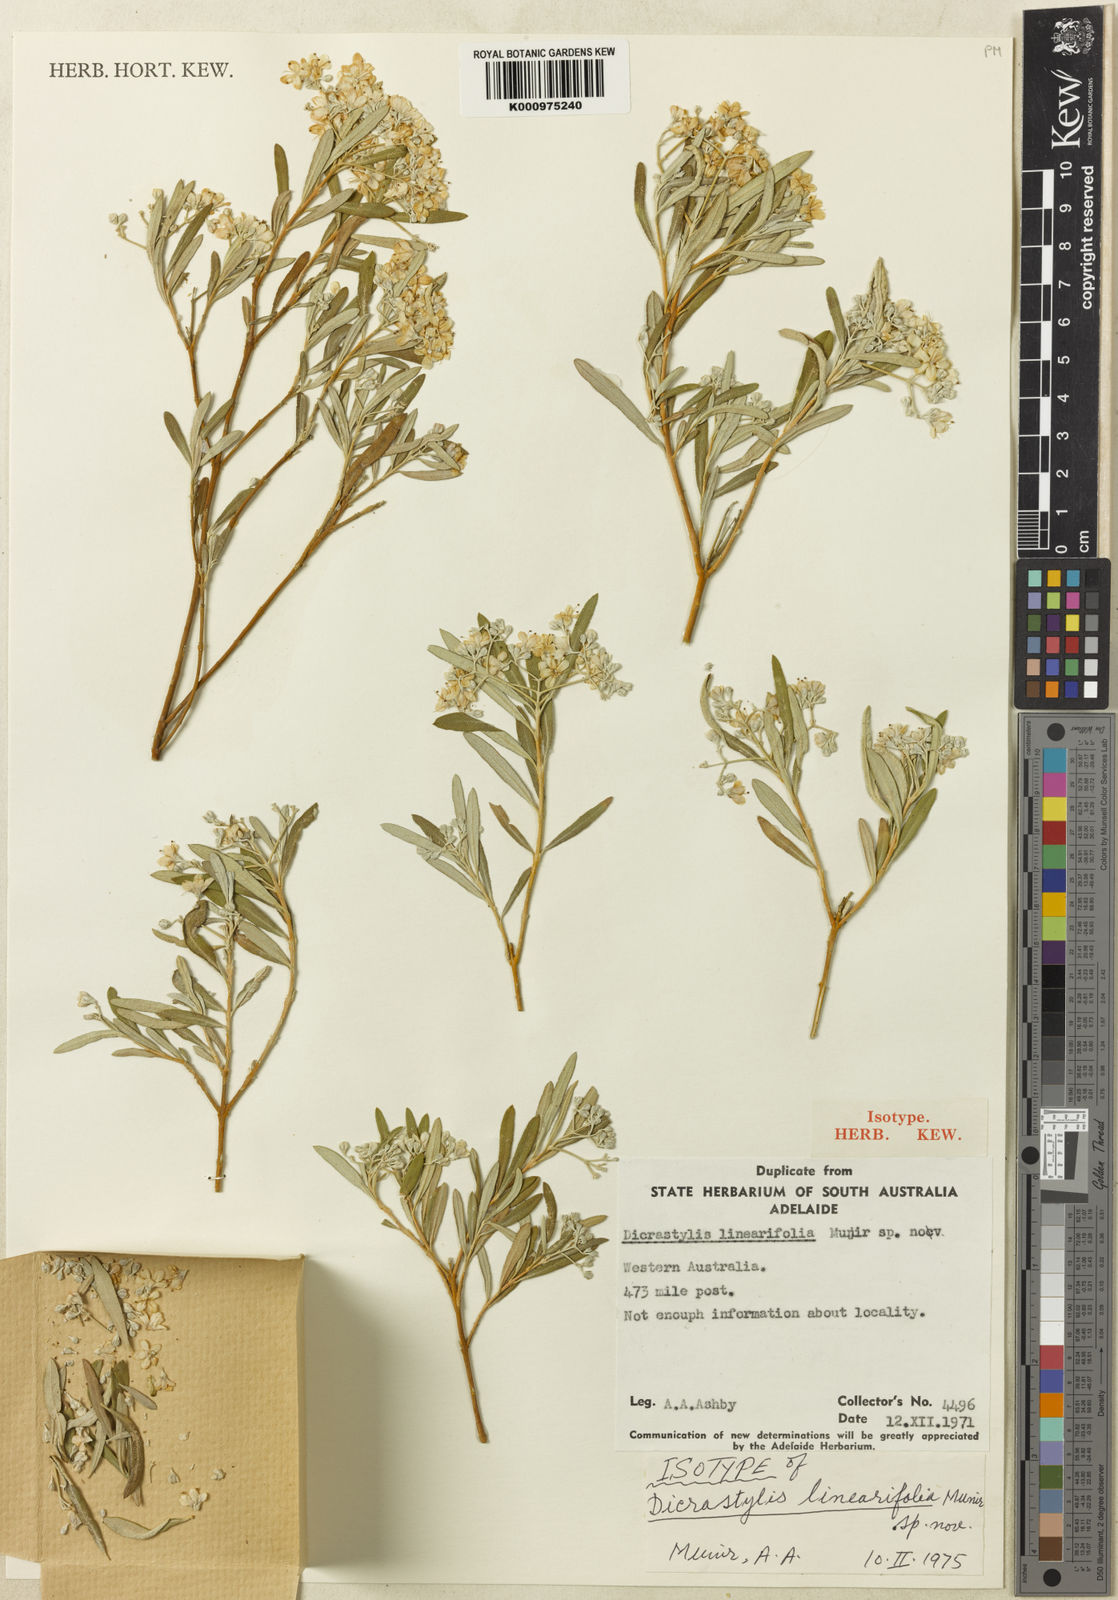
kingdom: Plantae
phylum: Tracheophyta
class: Magnoliopsida
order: Lamiales
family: Lamiaceae
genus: Dicrastylis
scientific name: Dicrastylis linearifolia
